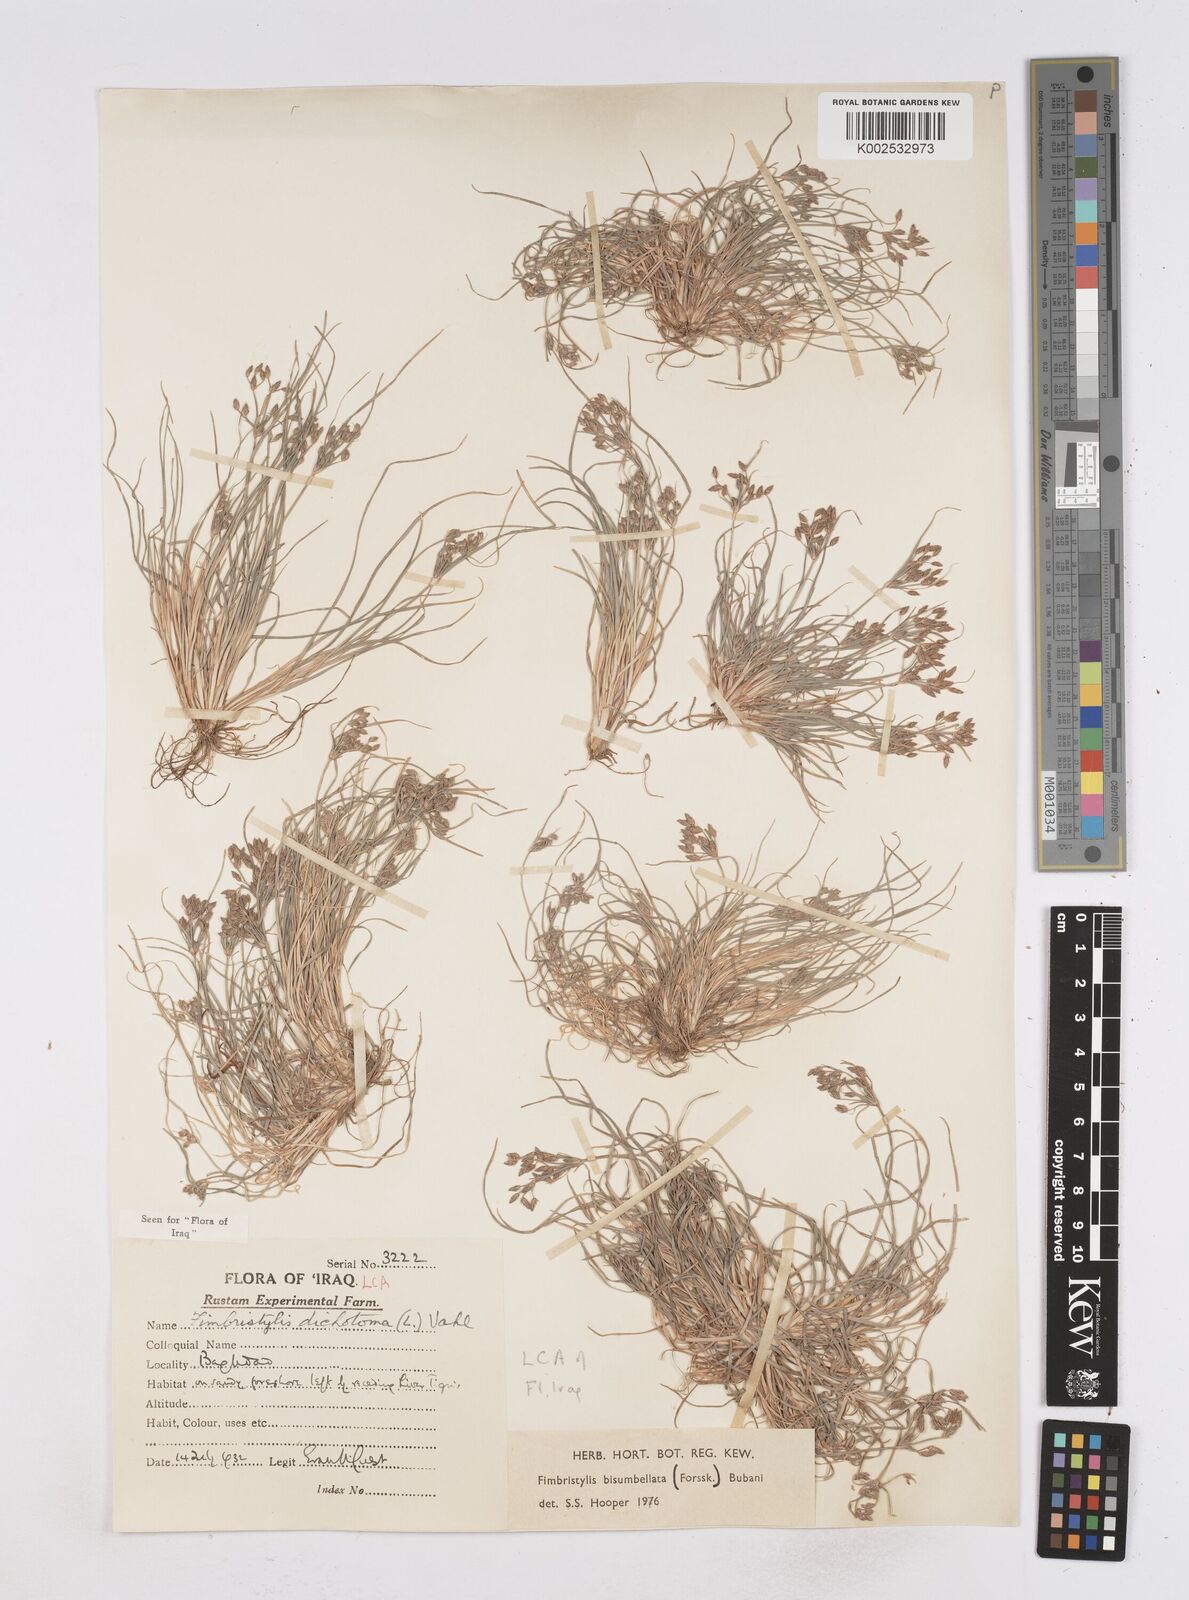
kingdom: Plantae
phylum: Tracheophyta
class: Liliopsida
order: Poales
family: Cyperaceae
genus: Fimbristylis
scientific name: Fimbristylis bisumbellata
